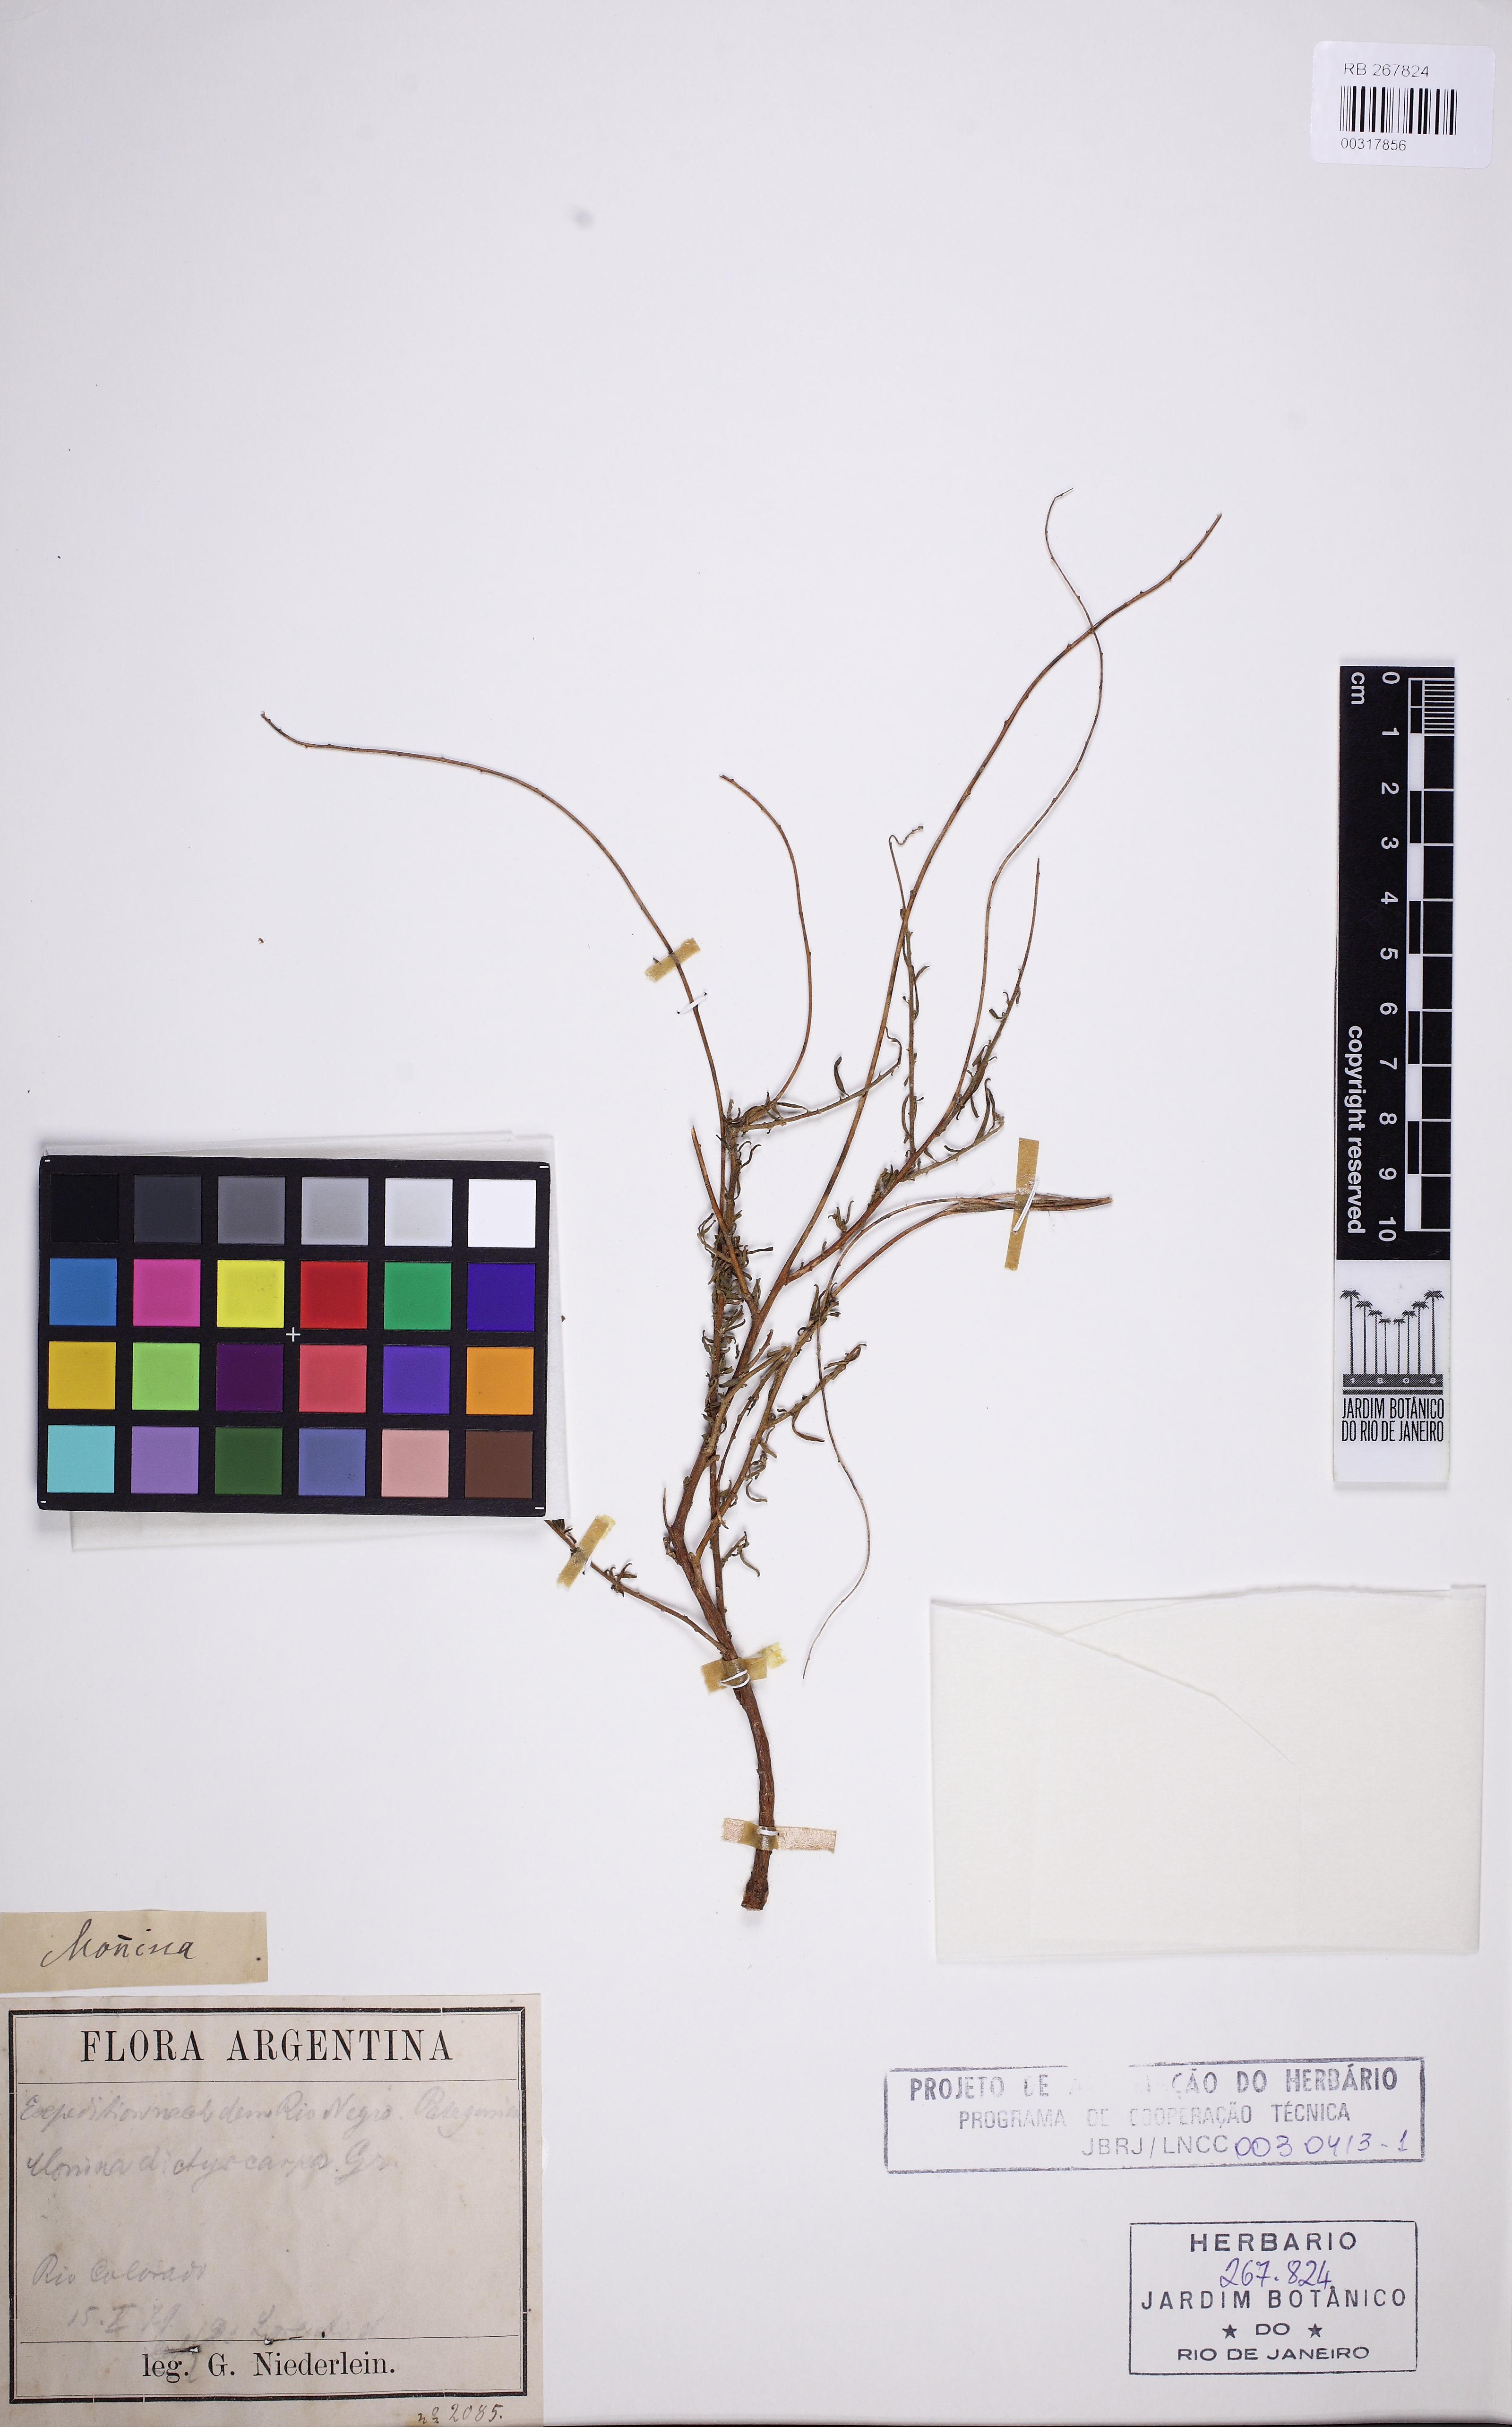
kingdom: Plantae
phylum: Tracheophyta
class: Magnoliopsida
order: Fabales
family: Polygalaceae
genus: Monnina
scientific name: Monnina dictyocarpa
